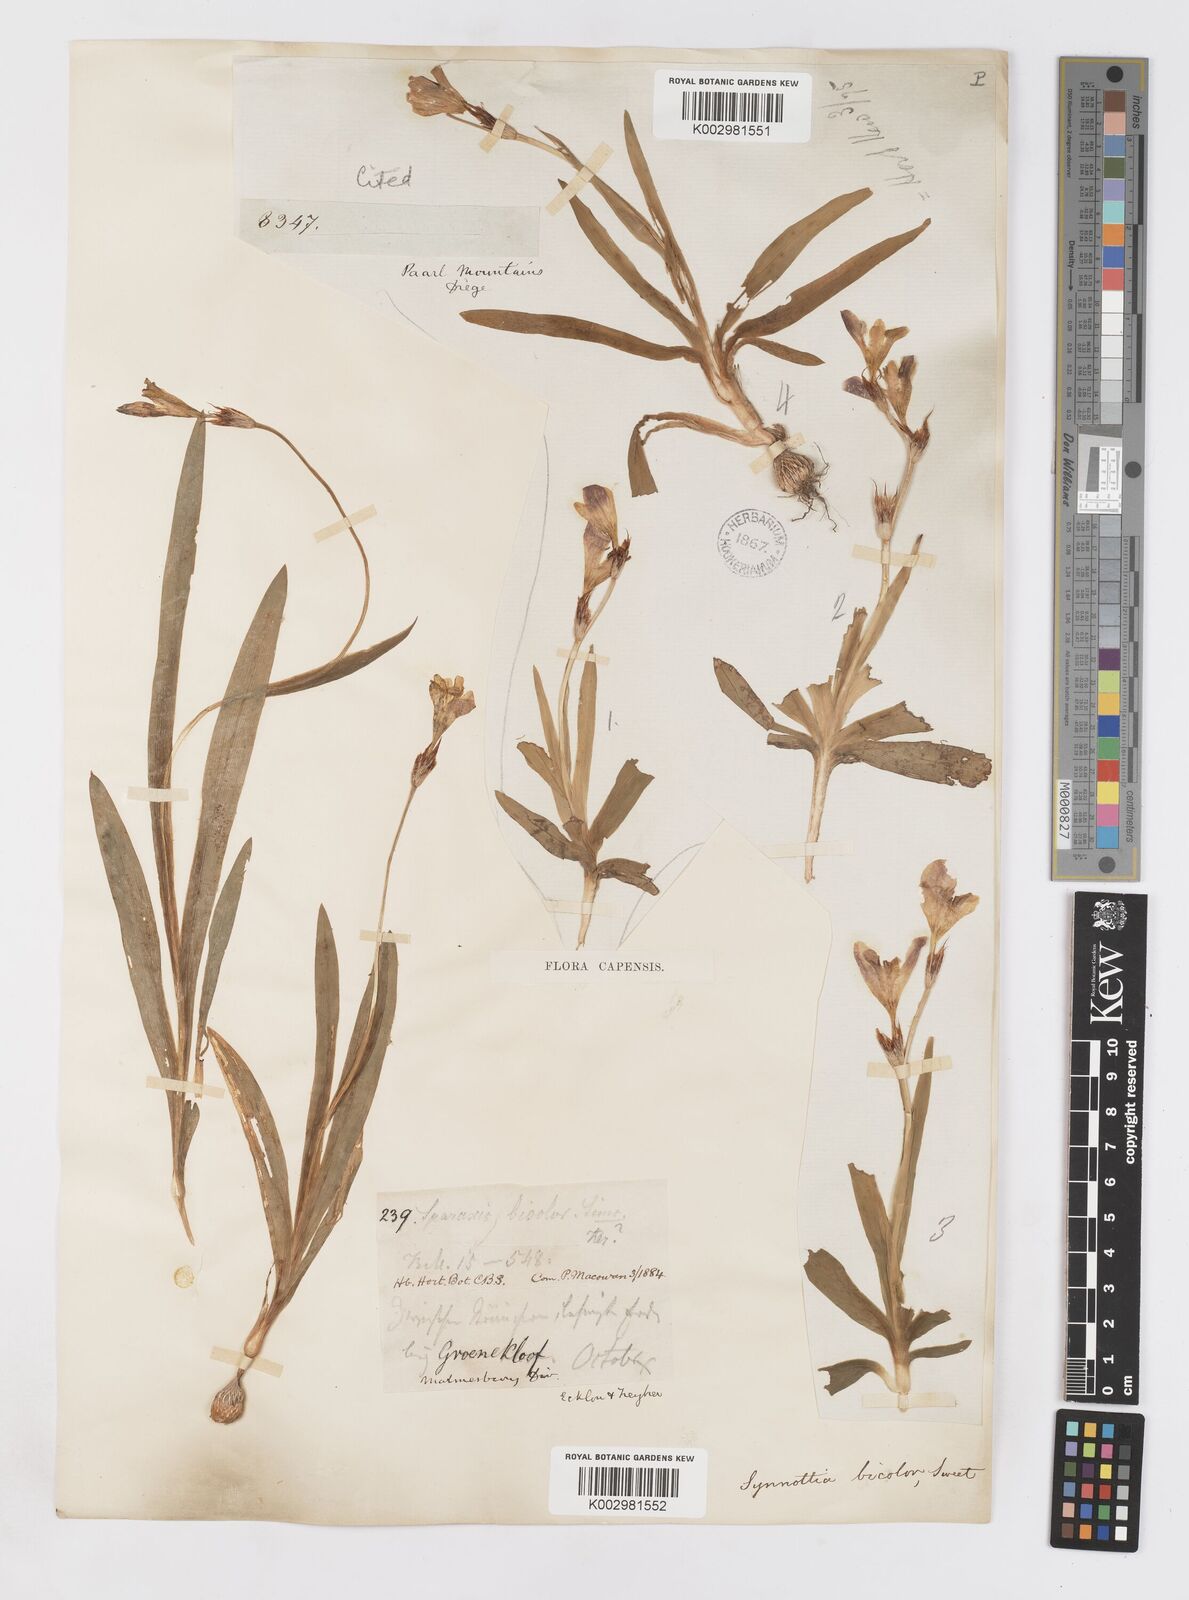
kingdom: Plantae
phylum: Tracheophyta
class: Liliopsida
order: Asparagales
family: Iridaceae
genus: Sparaxis
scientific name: Sparaxis villosa
